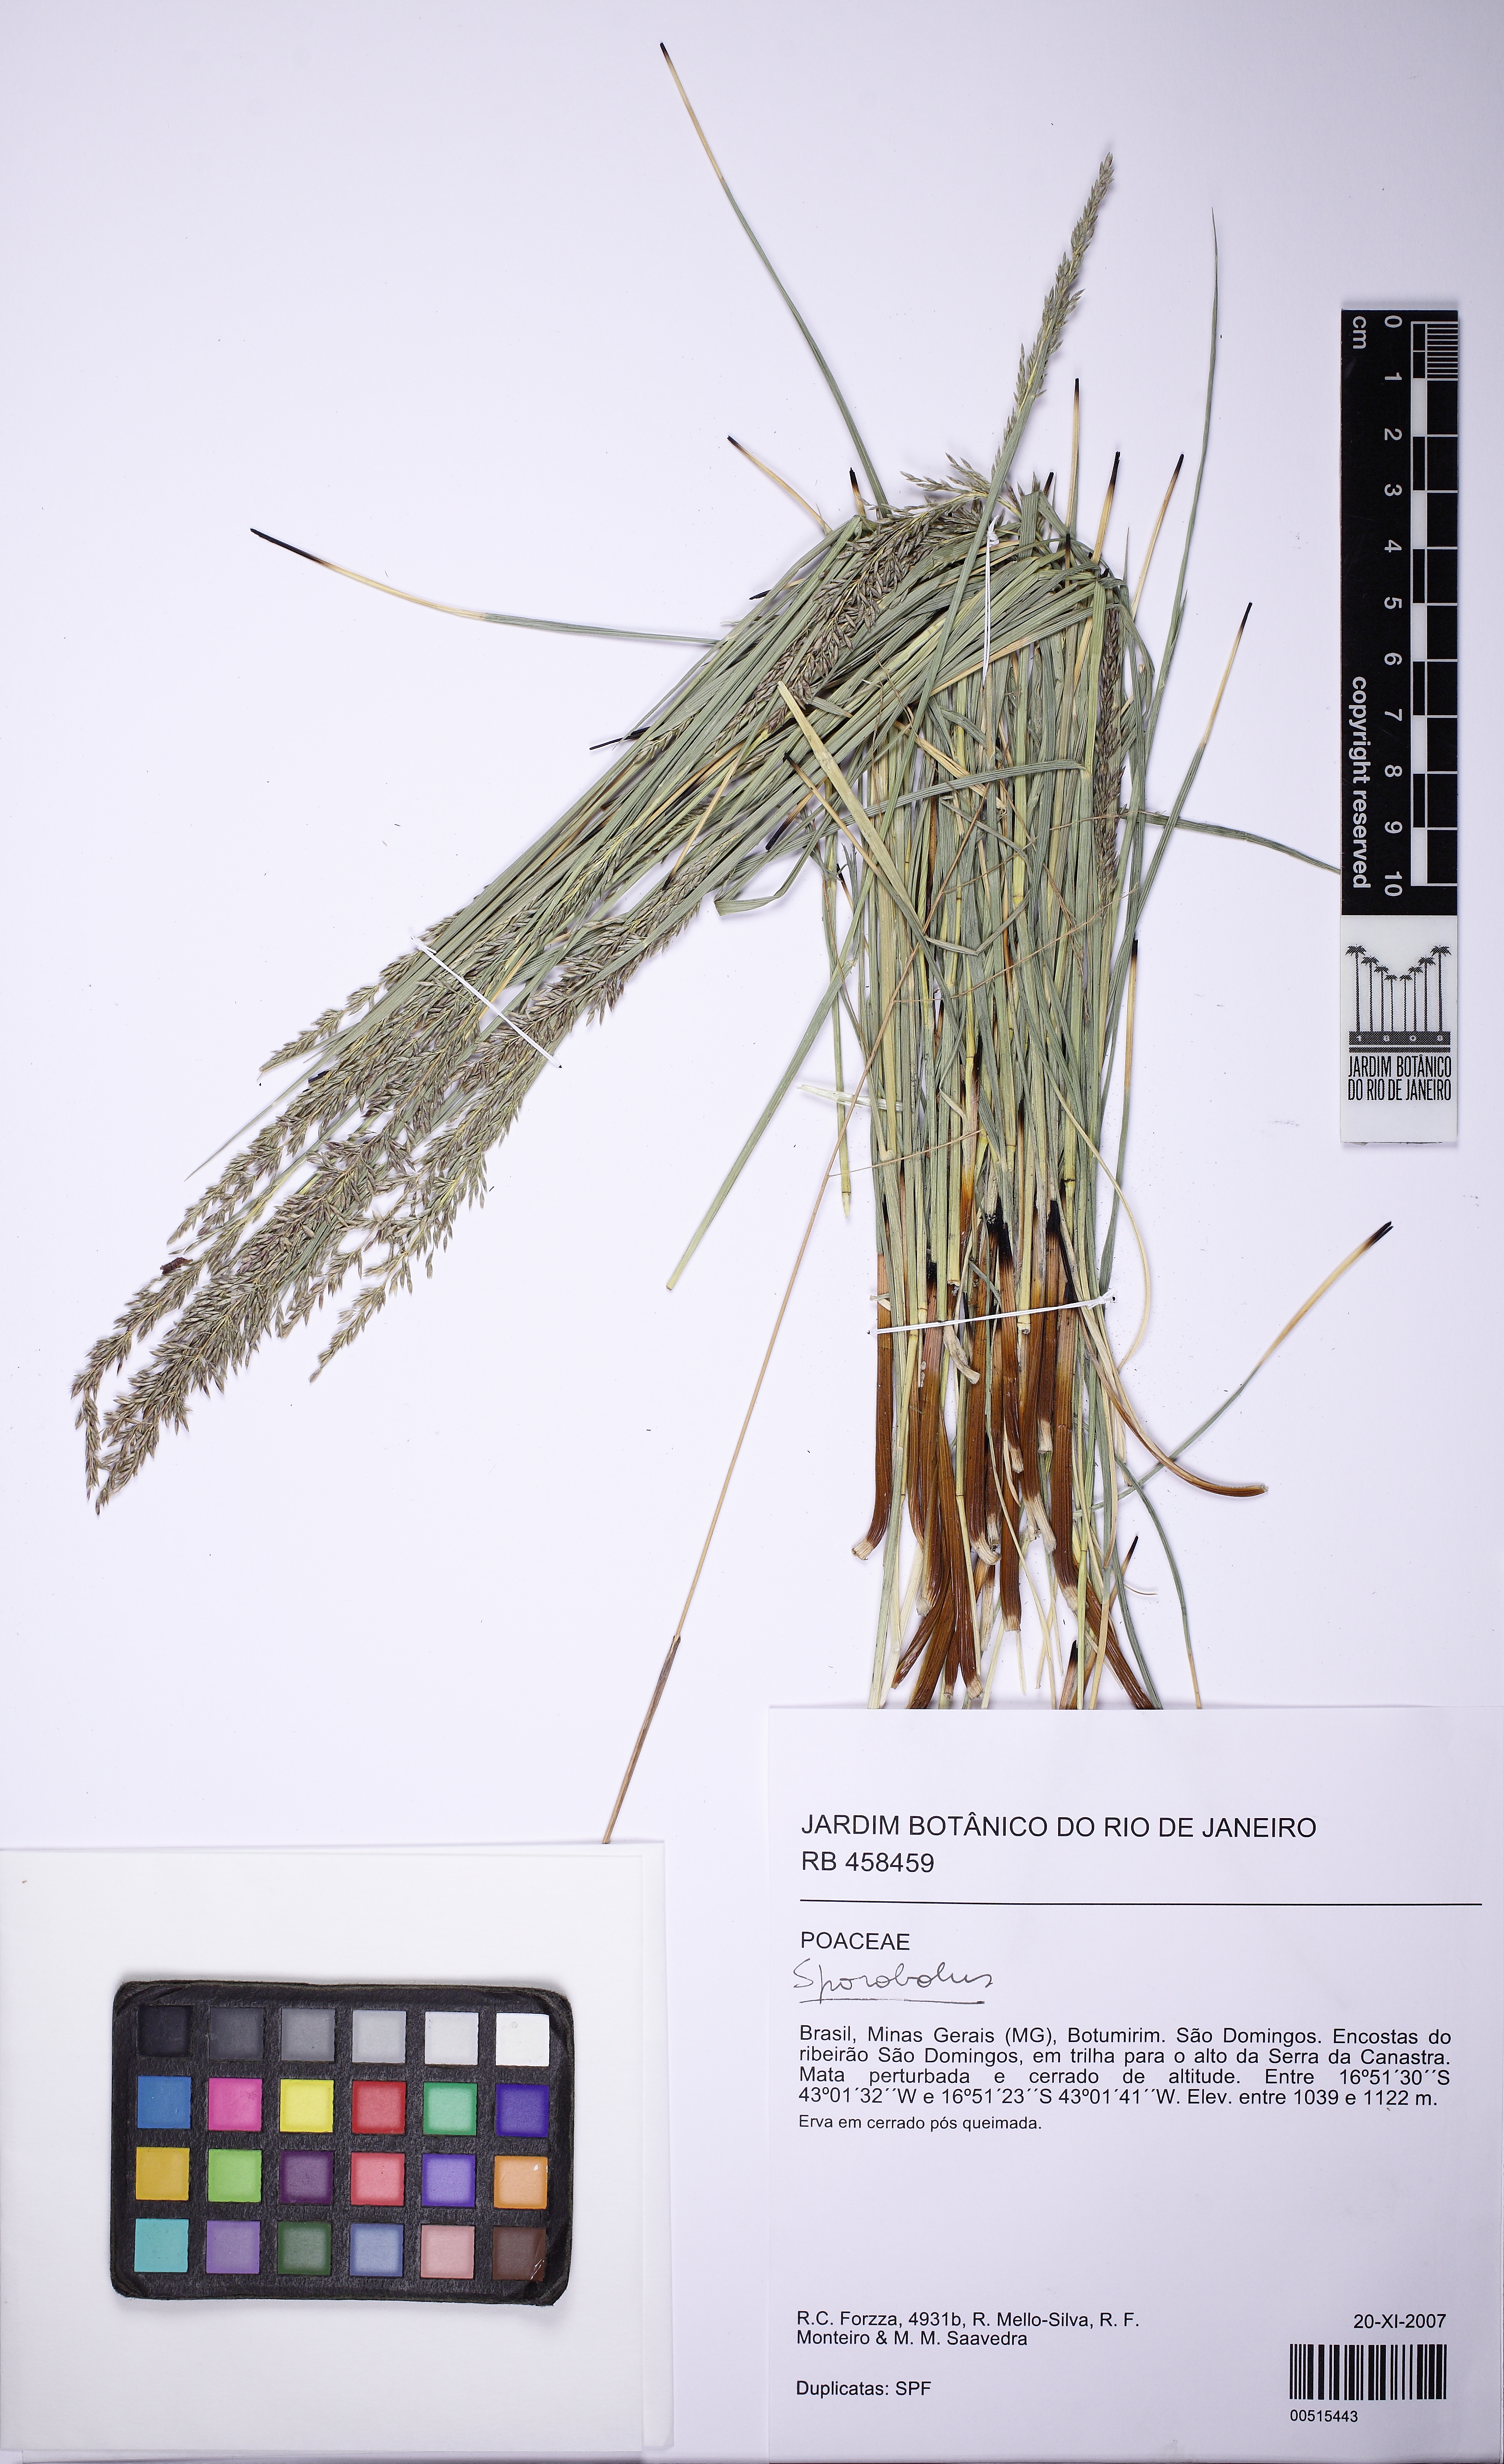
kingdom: Plantae
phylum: Tracheophyta
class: Liliopsida
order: Poales
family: Poaceae
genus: Sporobolus
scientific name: Sporobolus
